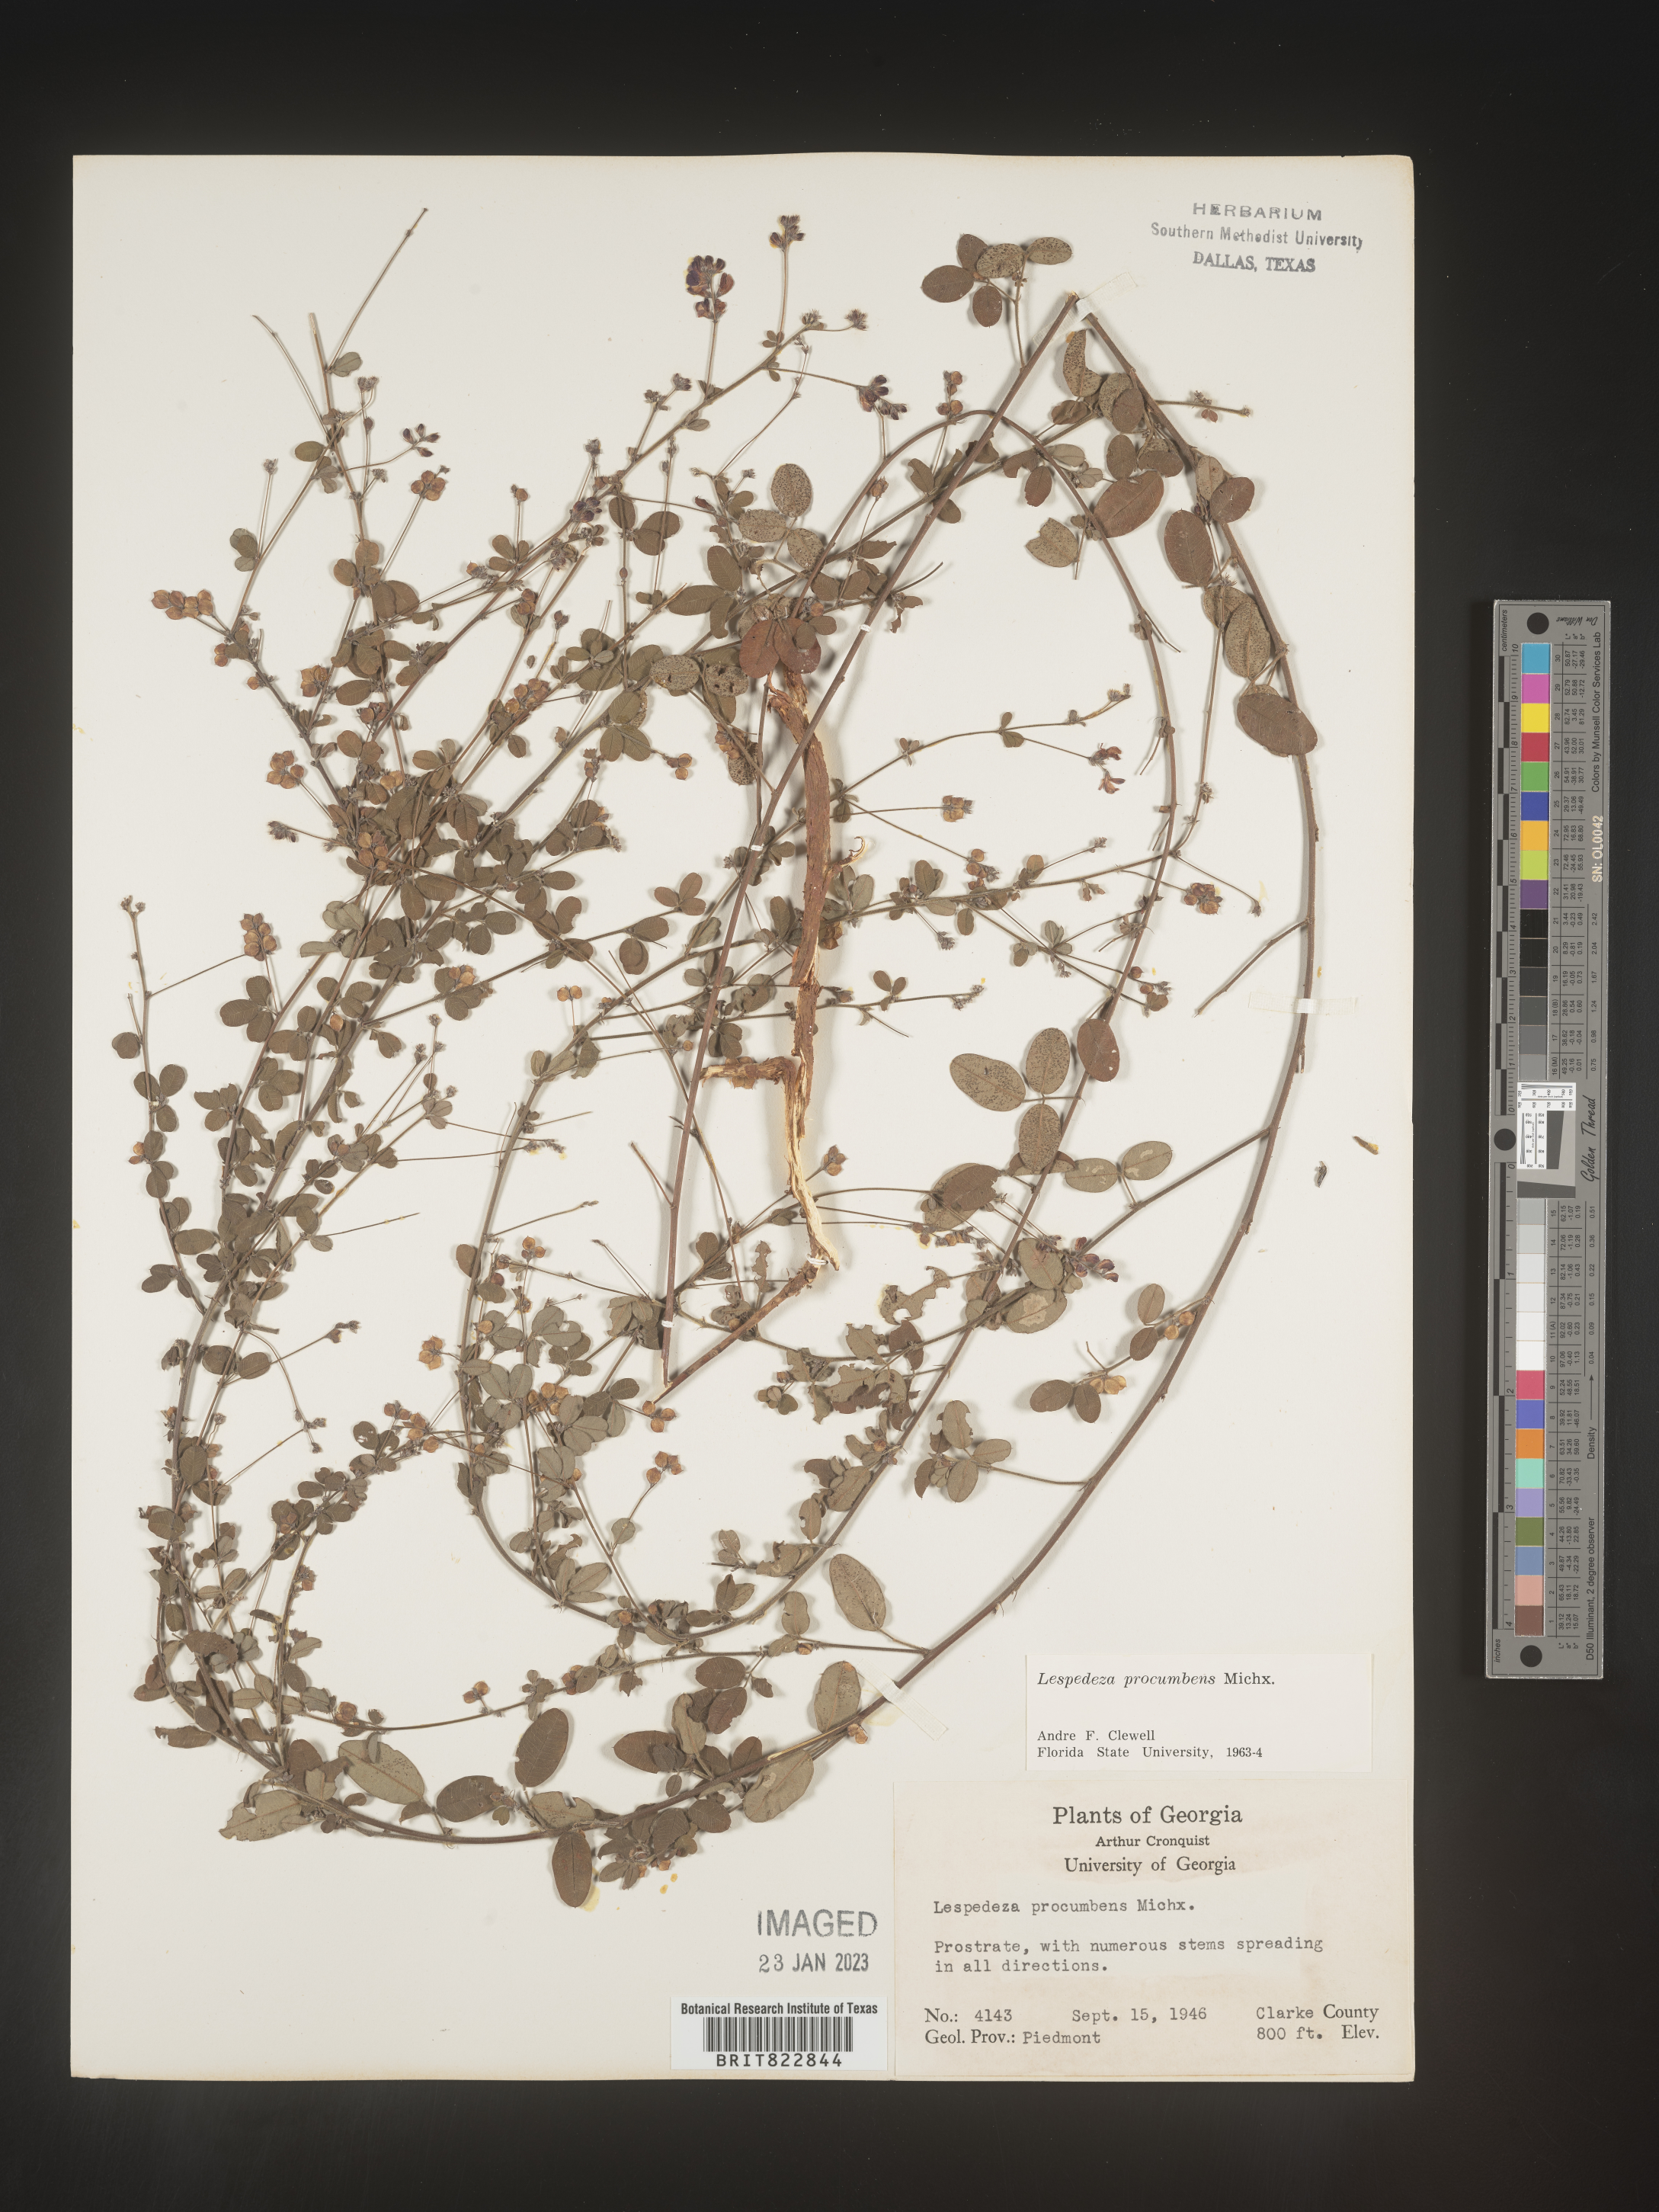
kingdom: Plantae
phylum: Tracheophyta
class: Magnoliopsida
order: Fabales
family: Fabaceae
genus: Lespedeza
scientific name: Lespedeza procumbens
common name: Downy trailing bush-clover
